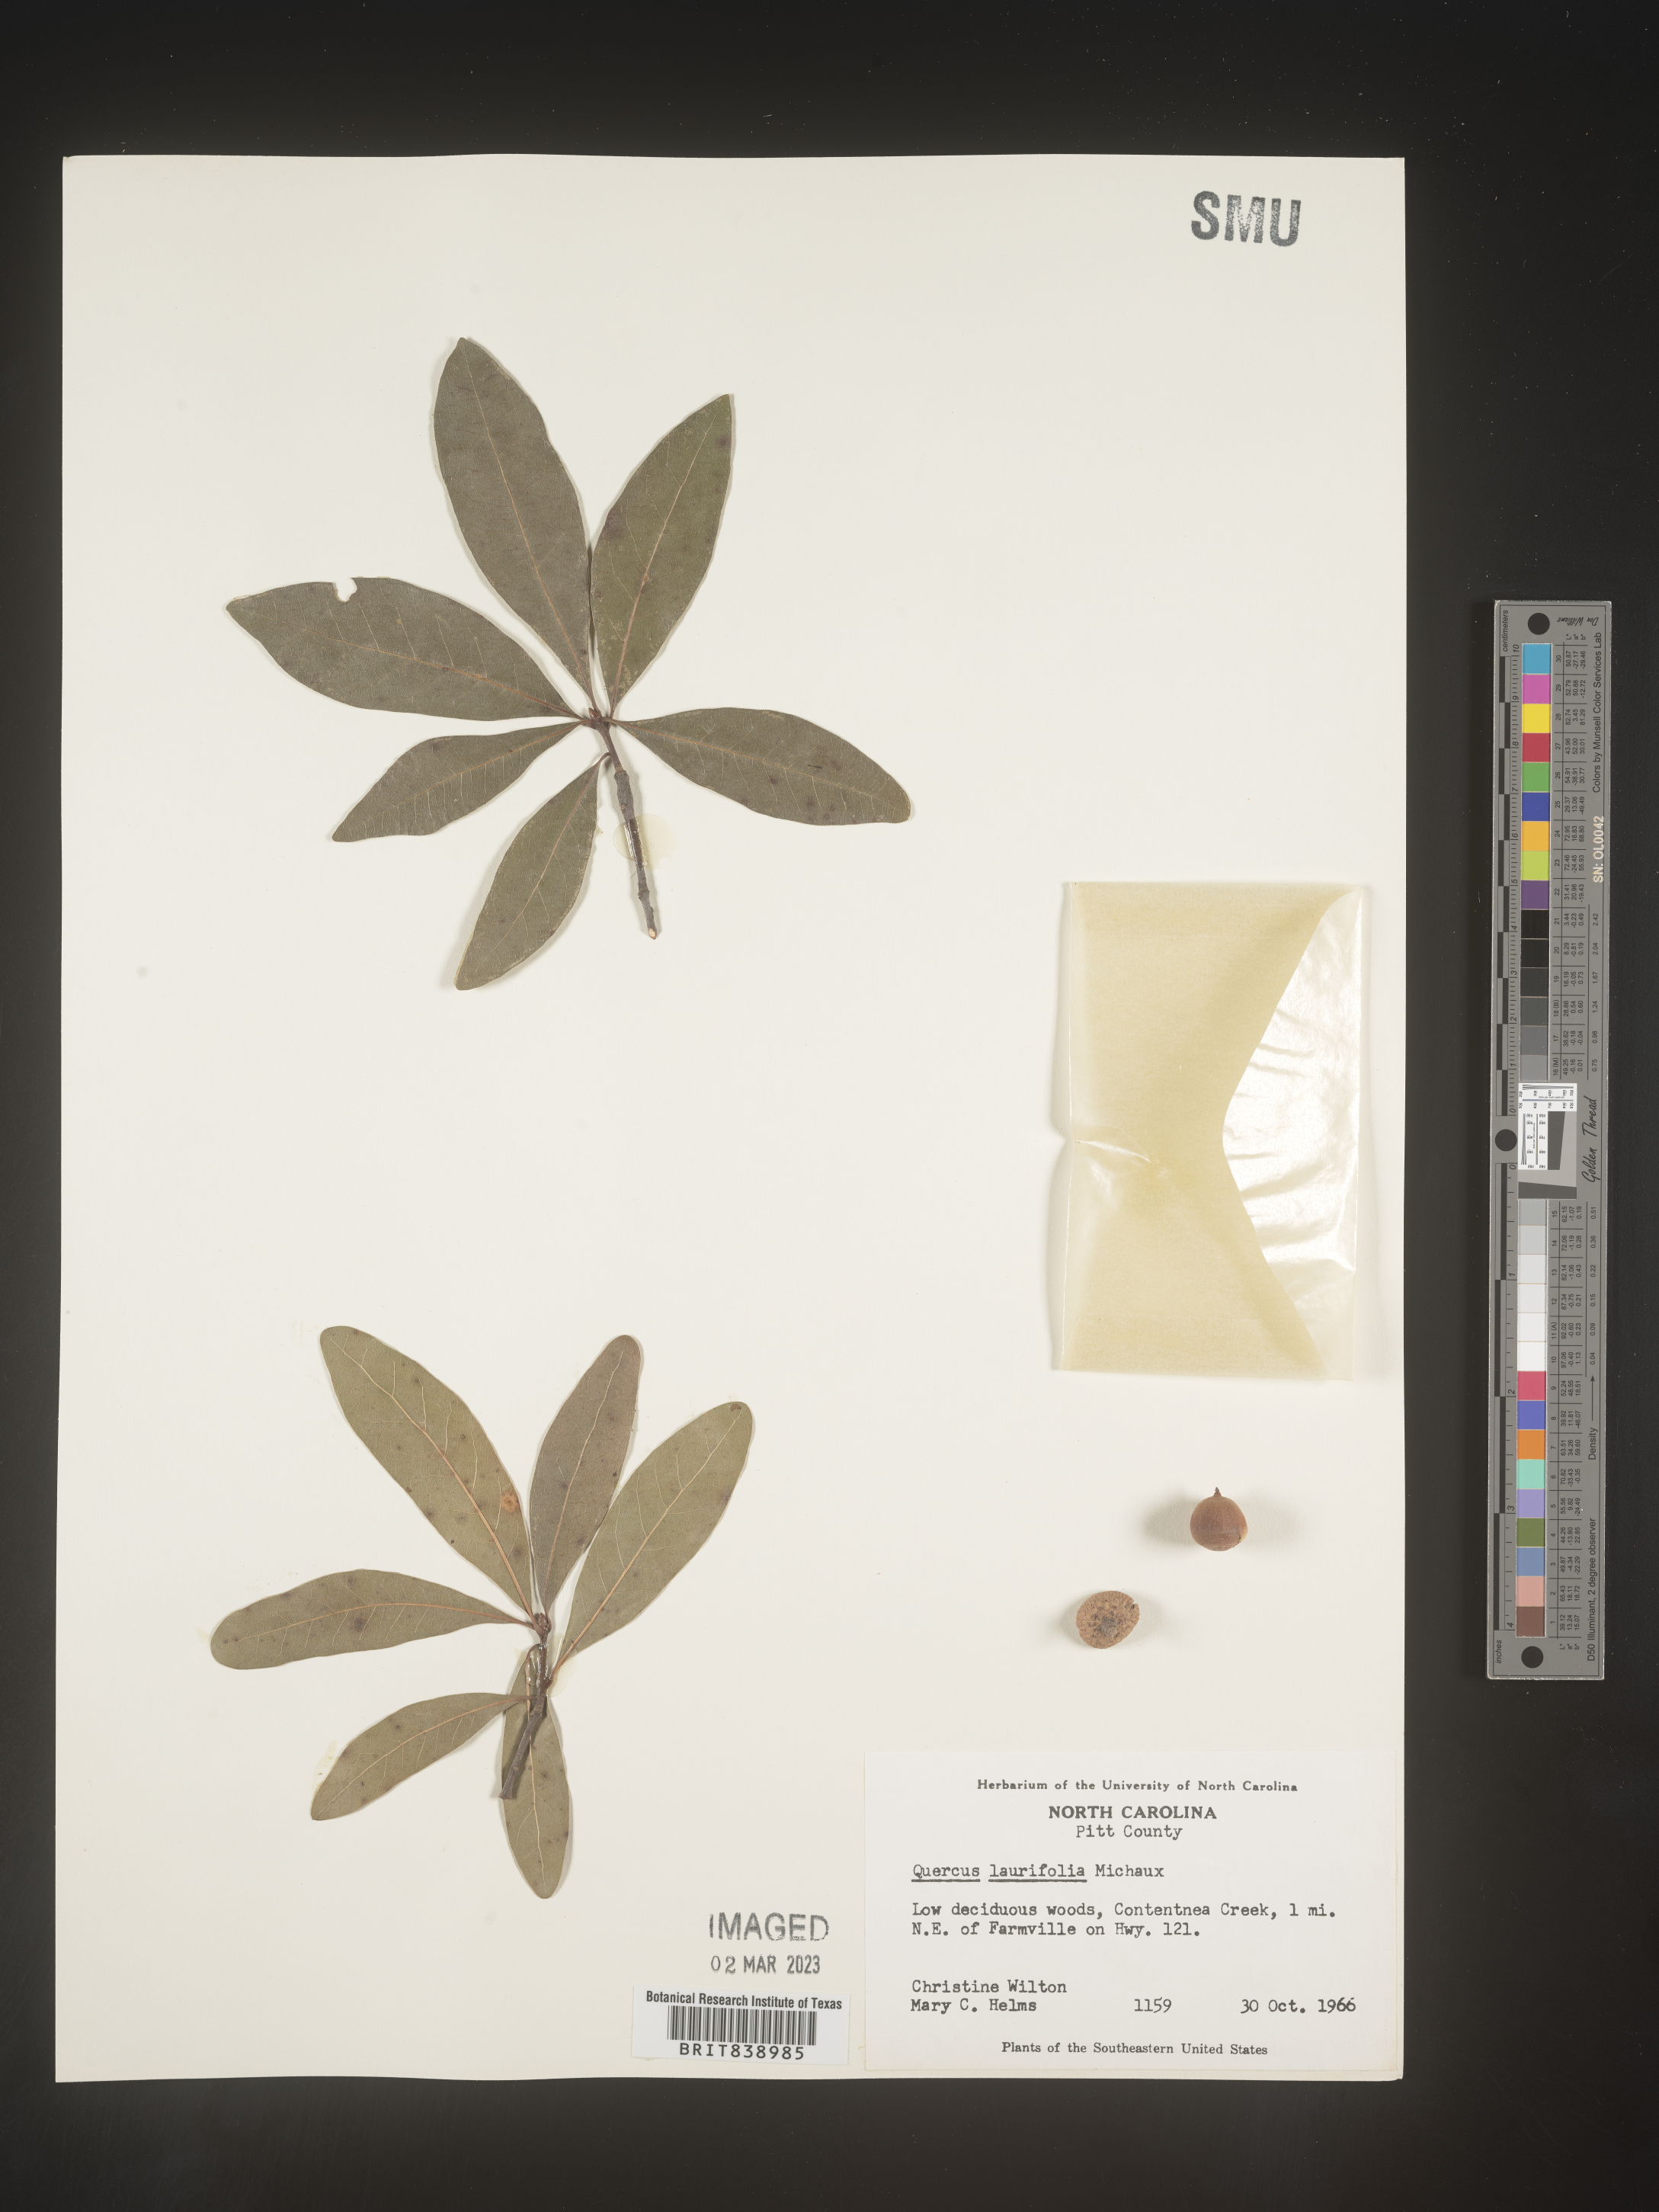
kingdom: Plantae
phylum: Tracheophyta
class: Magnoliopsida
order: Fagales
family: Fagaceae
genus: Quercus
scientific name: Quercus laurifolia
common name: Swamp laurel oak
